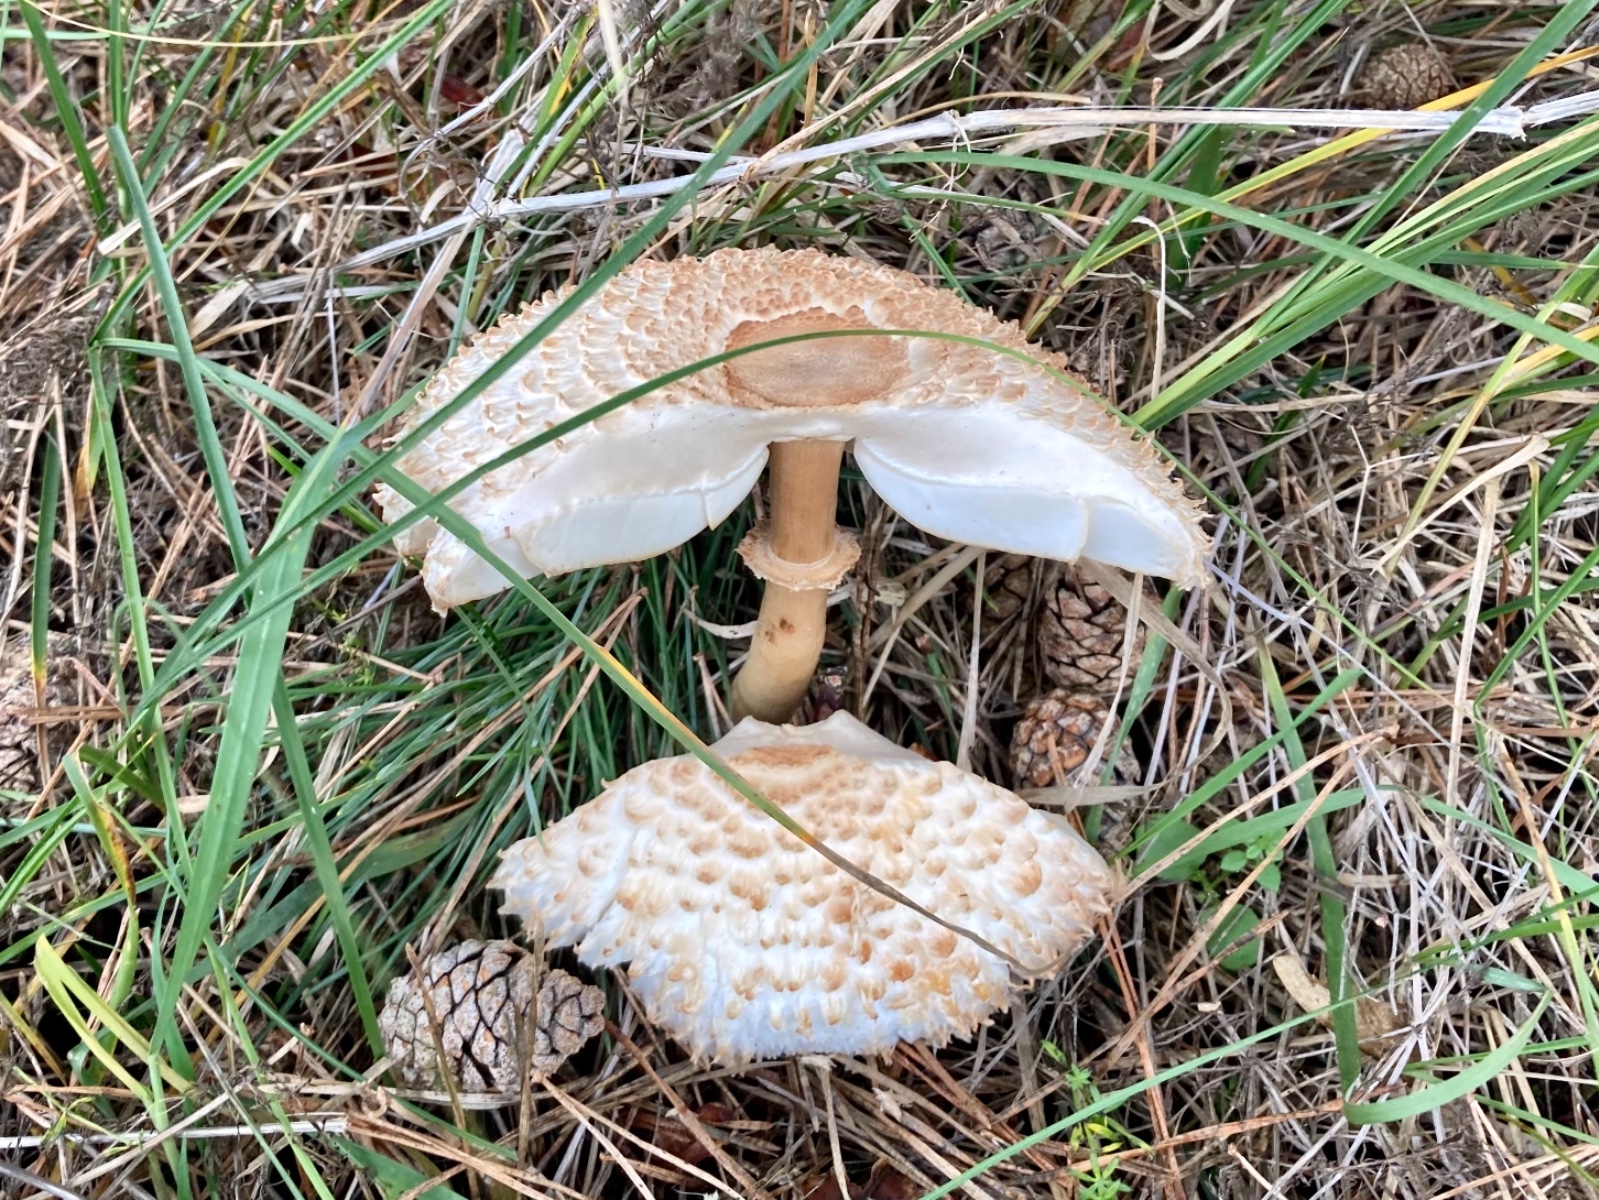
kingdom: Fungi
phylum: Basidiomycota
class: Agaricomycetes
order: Agaricales
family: Agaricaceae
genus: Leucoagaricus
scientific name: Leucoagaricus nympharum
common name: gran-silkehat
